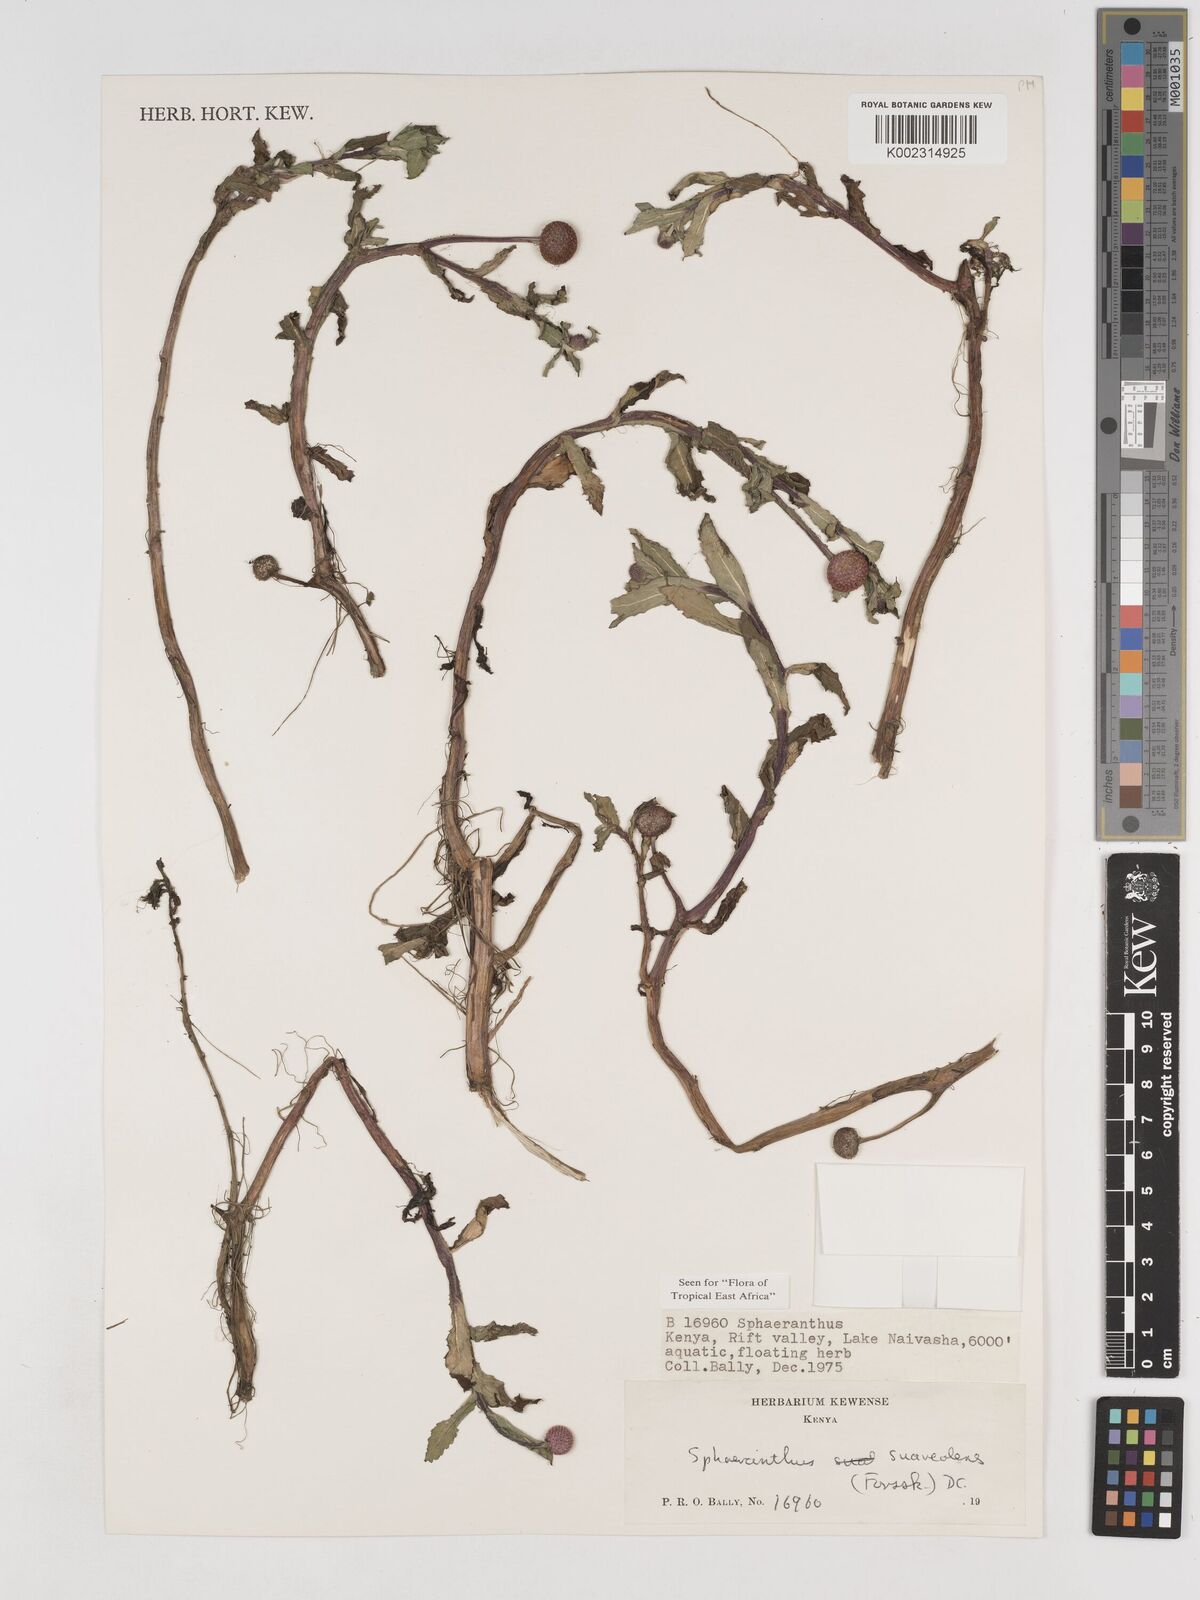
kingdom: Plantae
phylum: Tracheophyta
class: Magnoliopsida
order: Asterales
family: Asteraceae
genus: Sphaeranthus
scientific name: Sphaeranthus suaveolens
